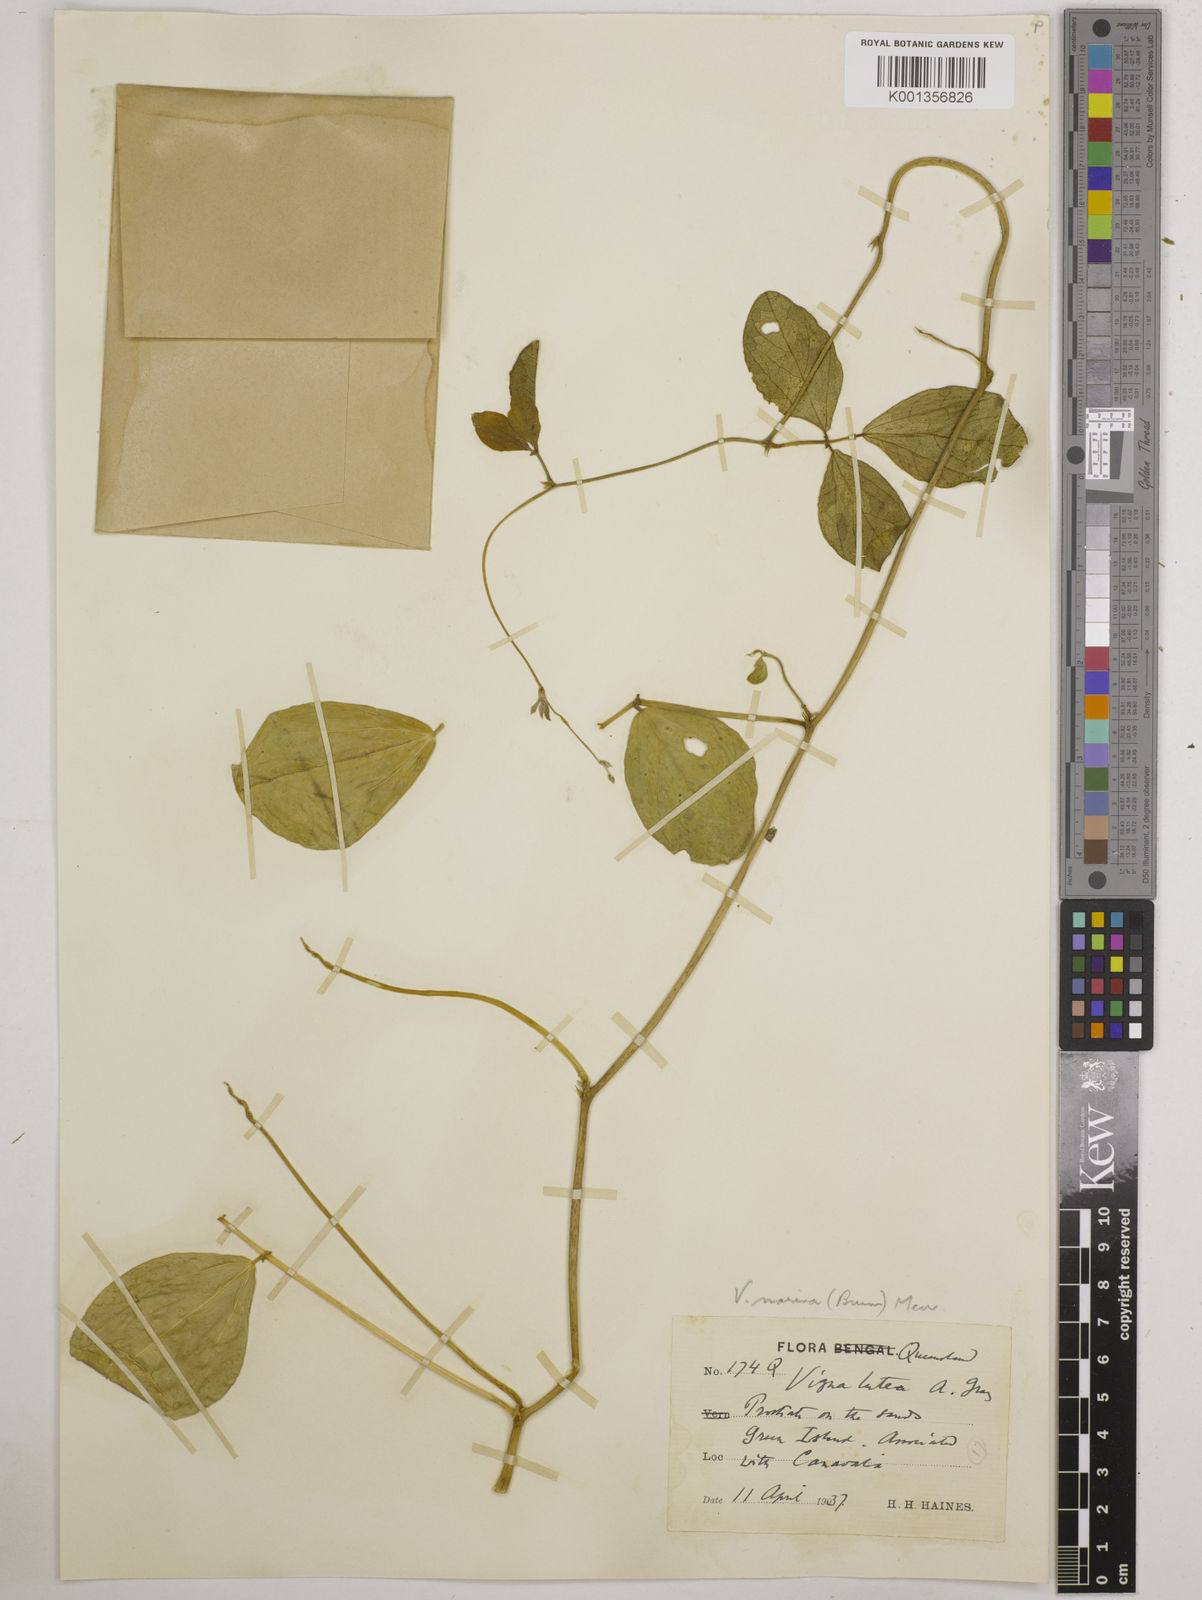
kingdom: Plantae
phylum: Tracheophyta
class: Magnoliopsida
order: Fabales
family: Fabaceae
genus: Vigna
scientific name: Vigna marina
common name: Dune-bean
